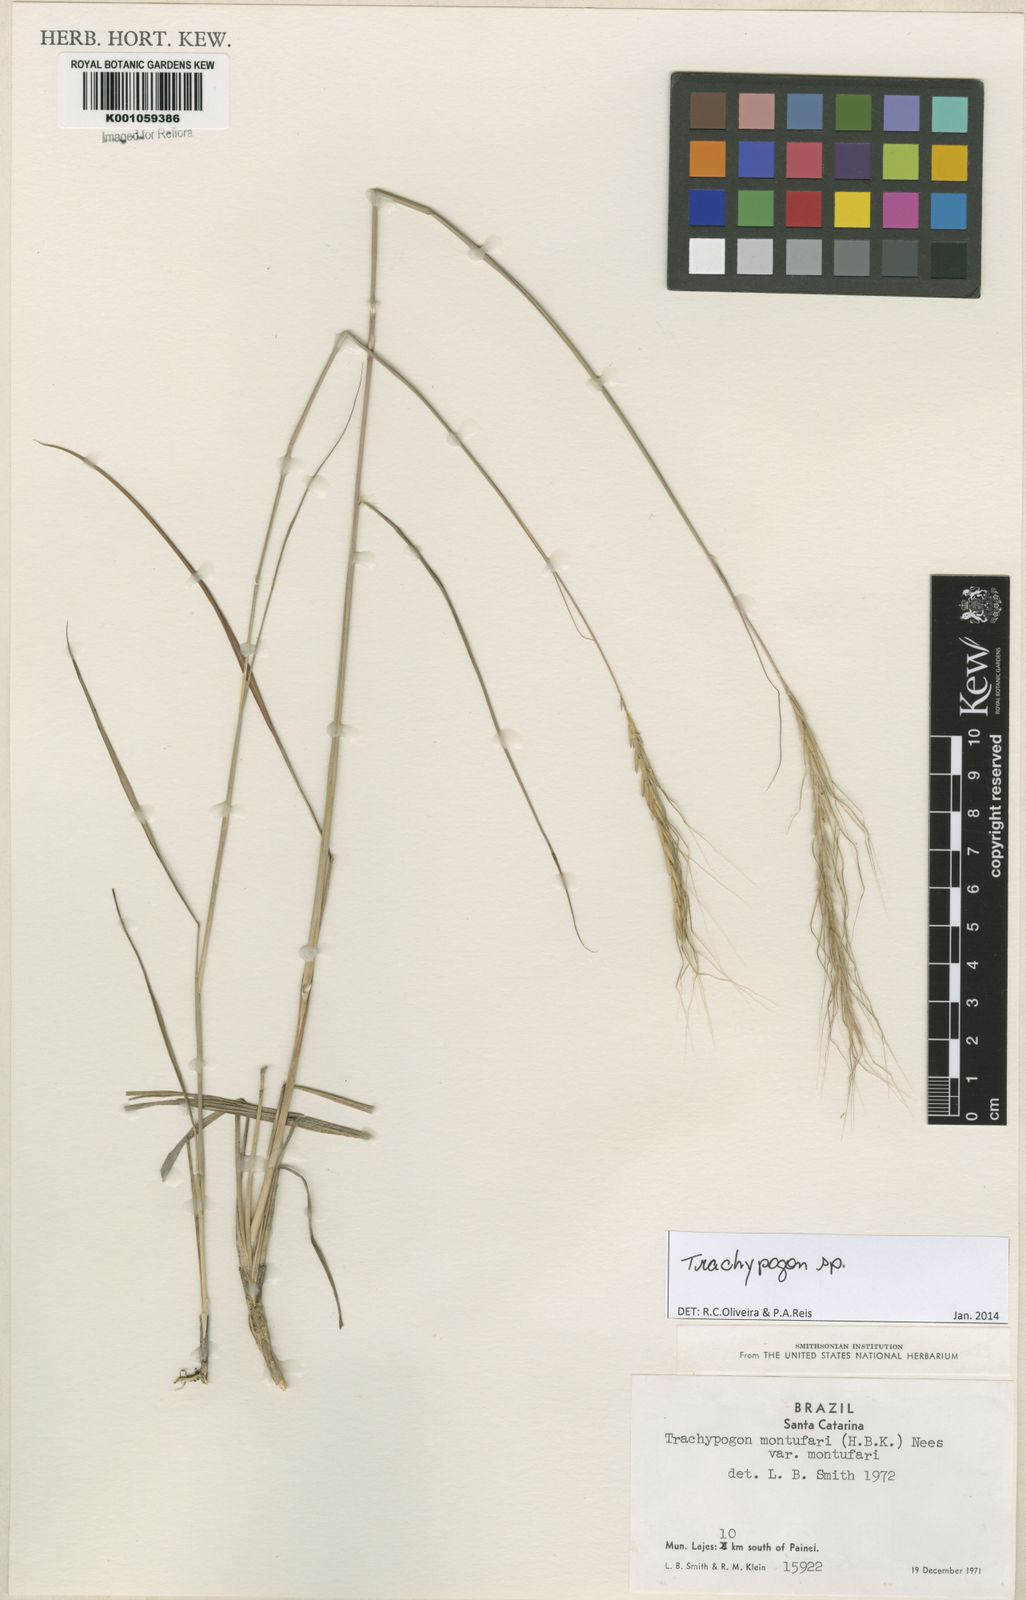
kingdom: Plantae
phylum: Tracheophyta
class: Liliopsida
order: Poales
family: Poaceae
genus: Trachypogon
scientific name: Trachypogon
